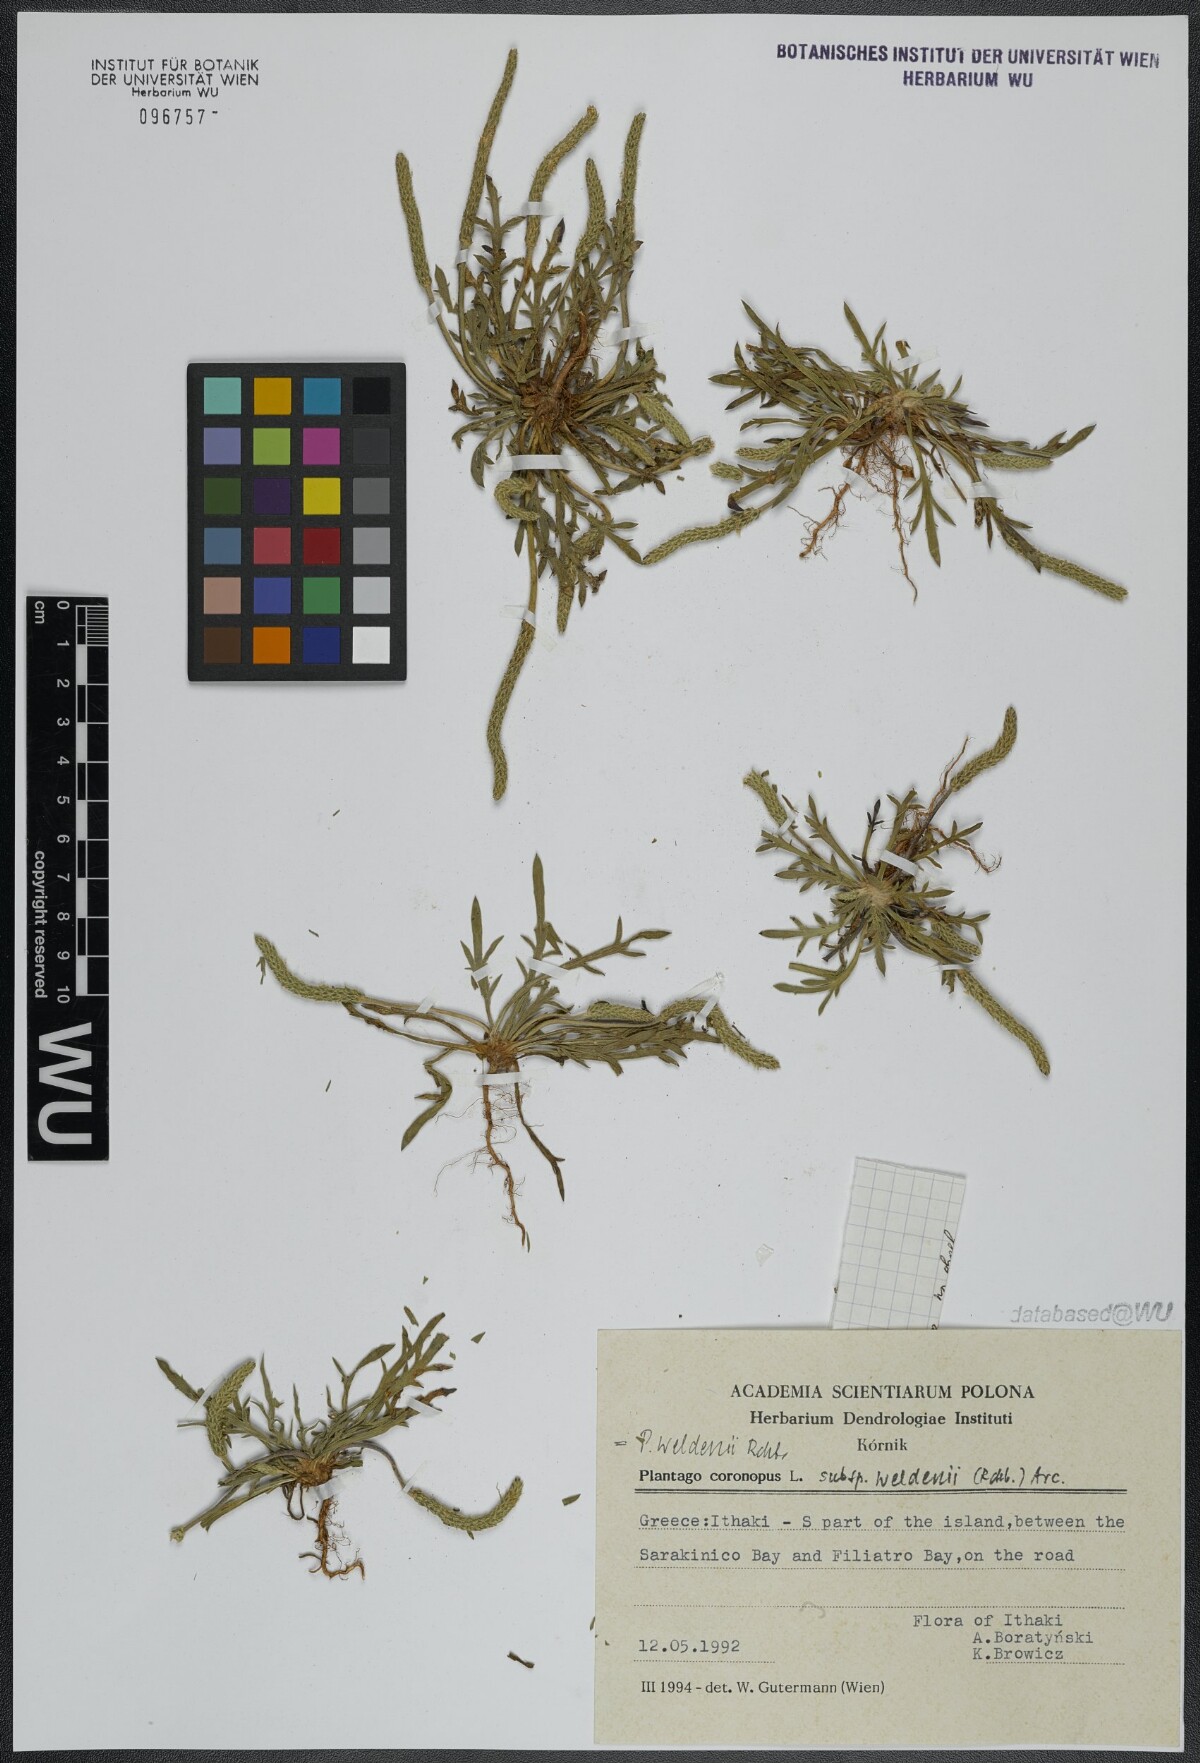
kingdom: Plantae
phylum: Tracheophyta
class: Magnoliopsida
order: Lamiales
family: Plantaginaceae
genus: Plantago
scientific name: Plantago weldenii
